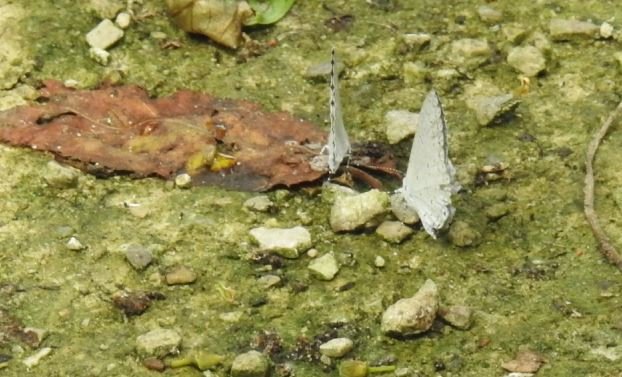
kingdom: Animalia
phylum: Arthropoda
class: Insecta
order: Lepidoptera
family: Lycaenidae
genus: Celastrina
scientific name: Celastrina
